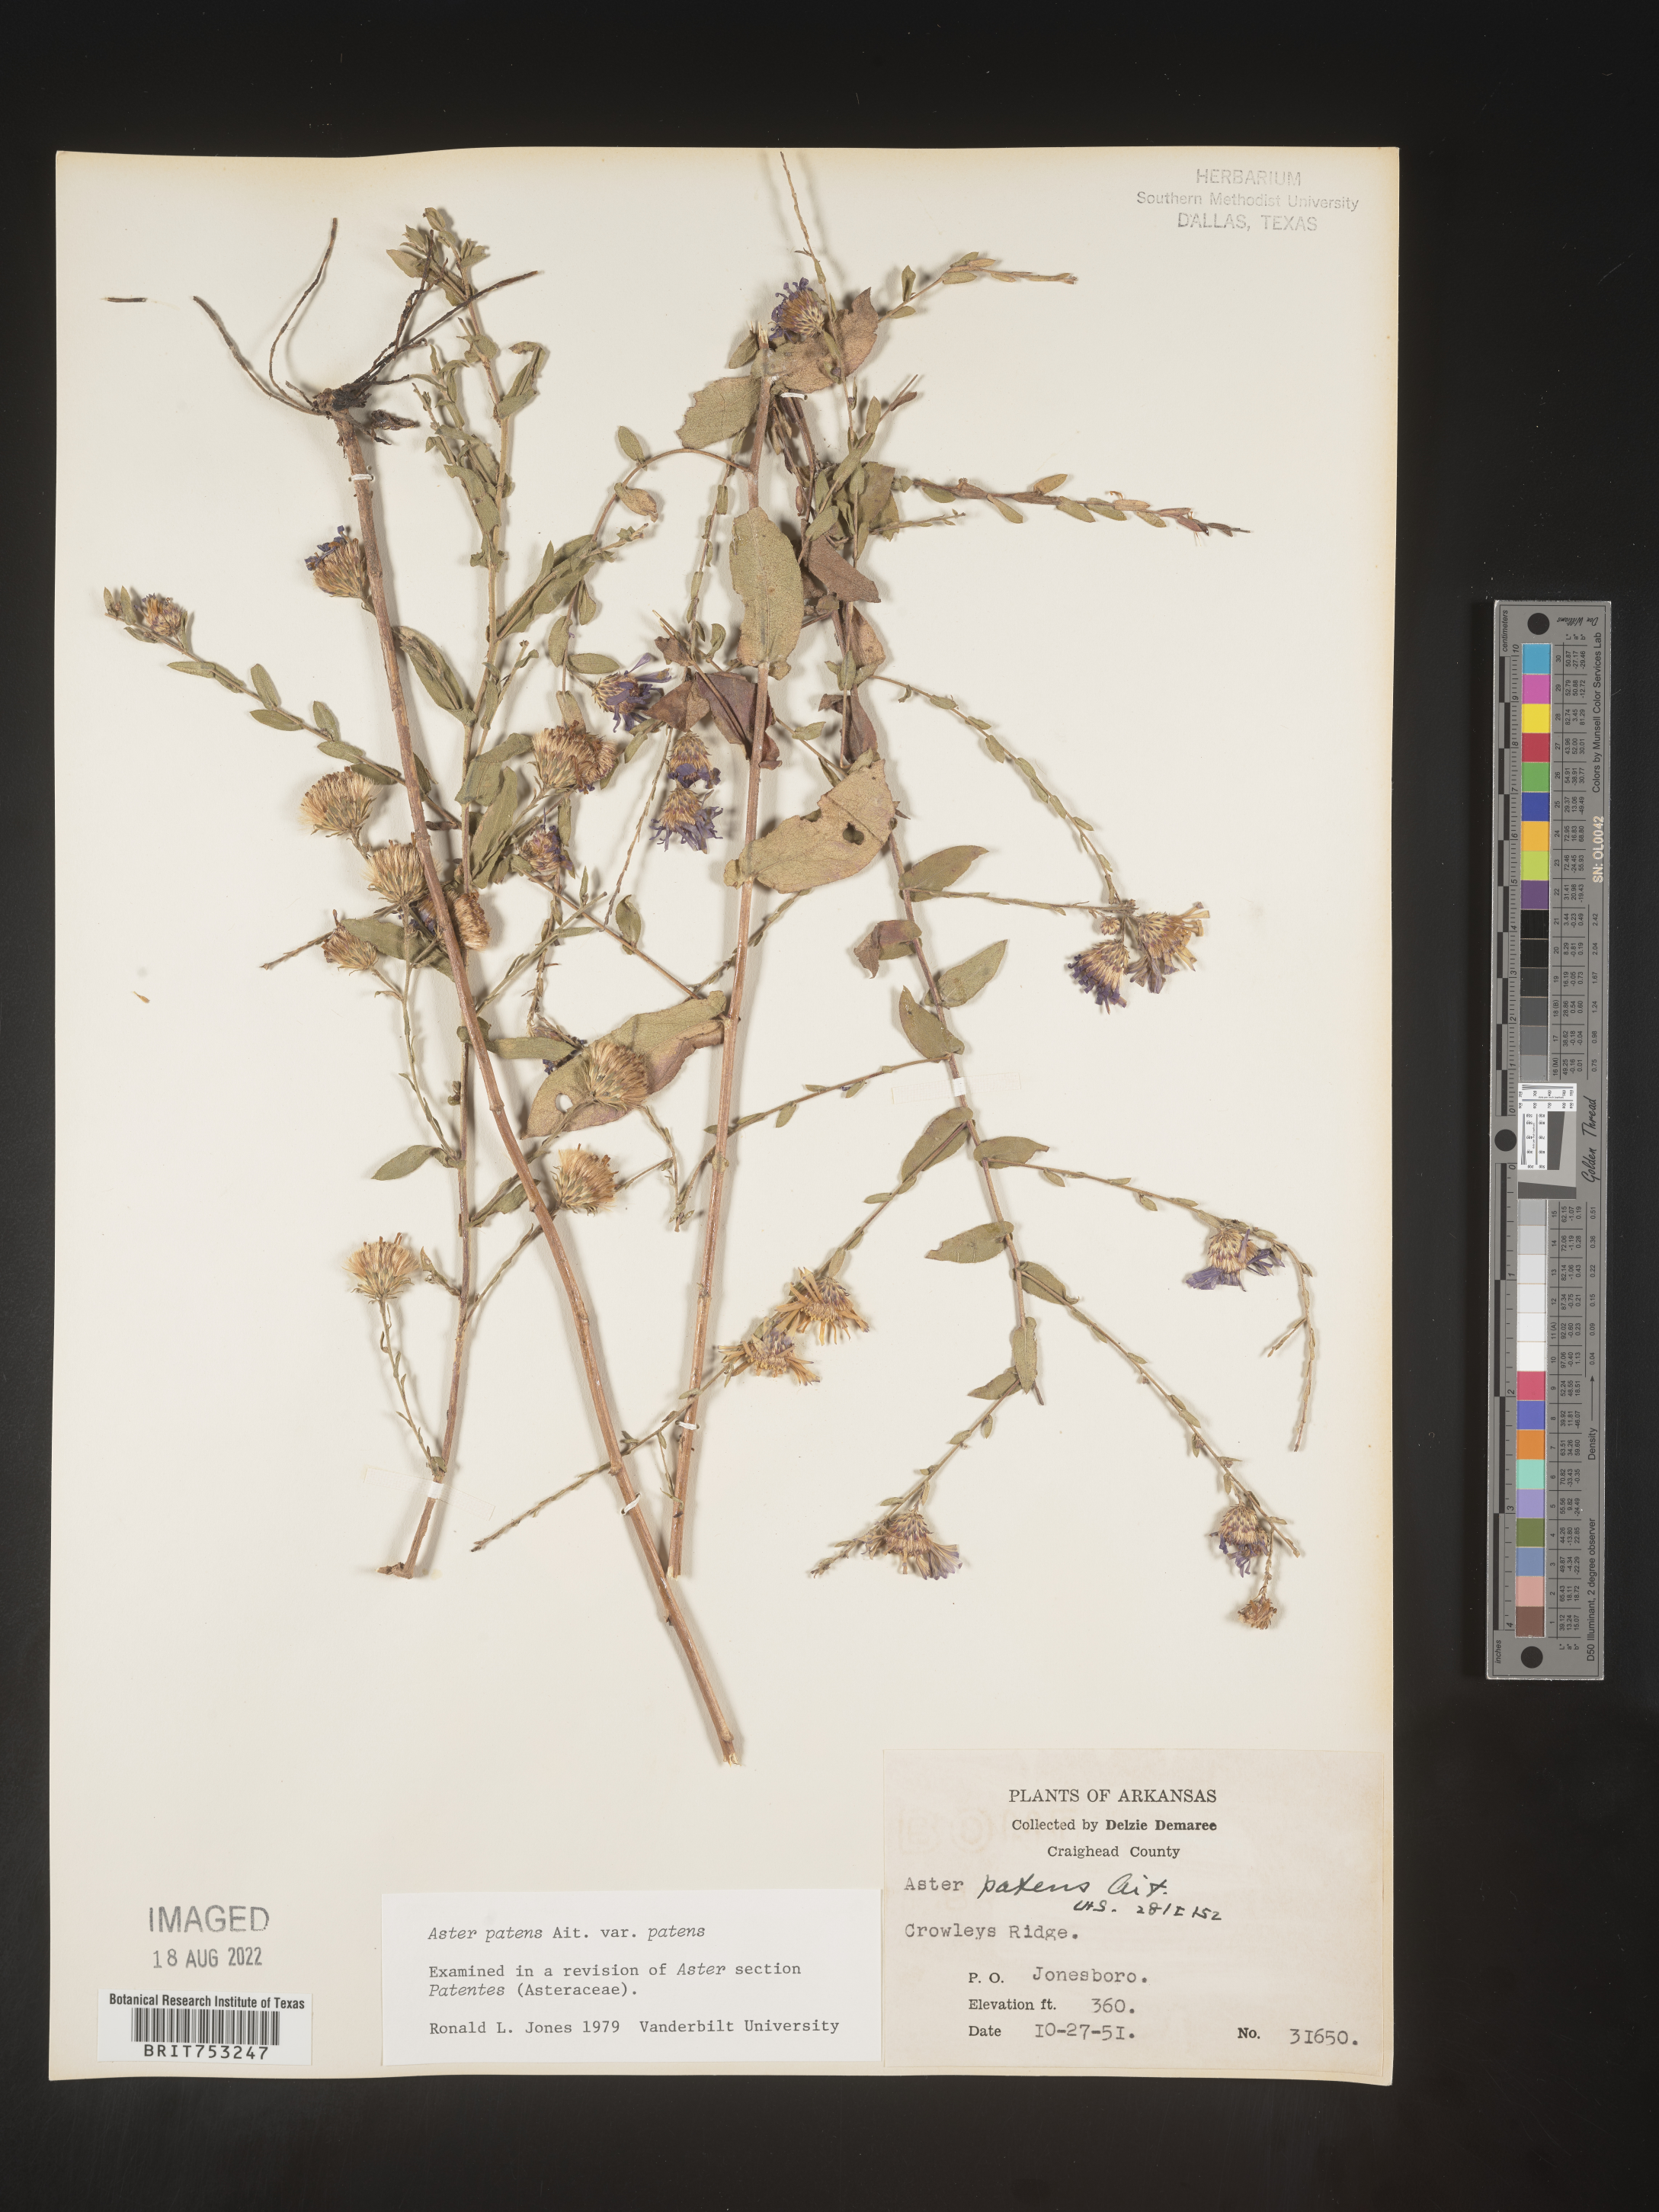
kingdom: Plantae
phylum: Tracheophyta
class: Magnoliopsida
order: Asterales
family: Asteraceae
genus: Symphyotrichum
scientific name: Symphyotrichum patens
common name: Late purple aster
